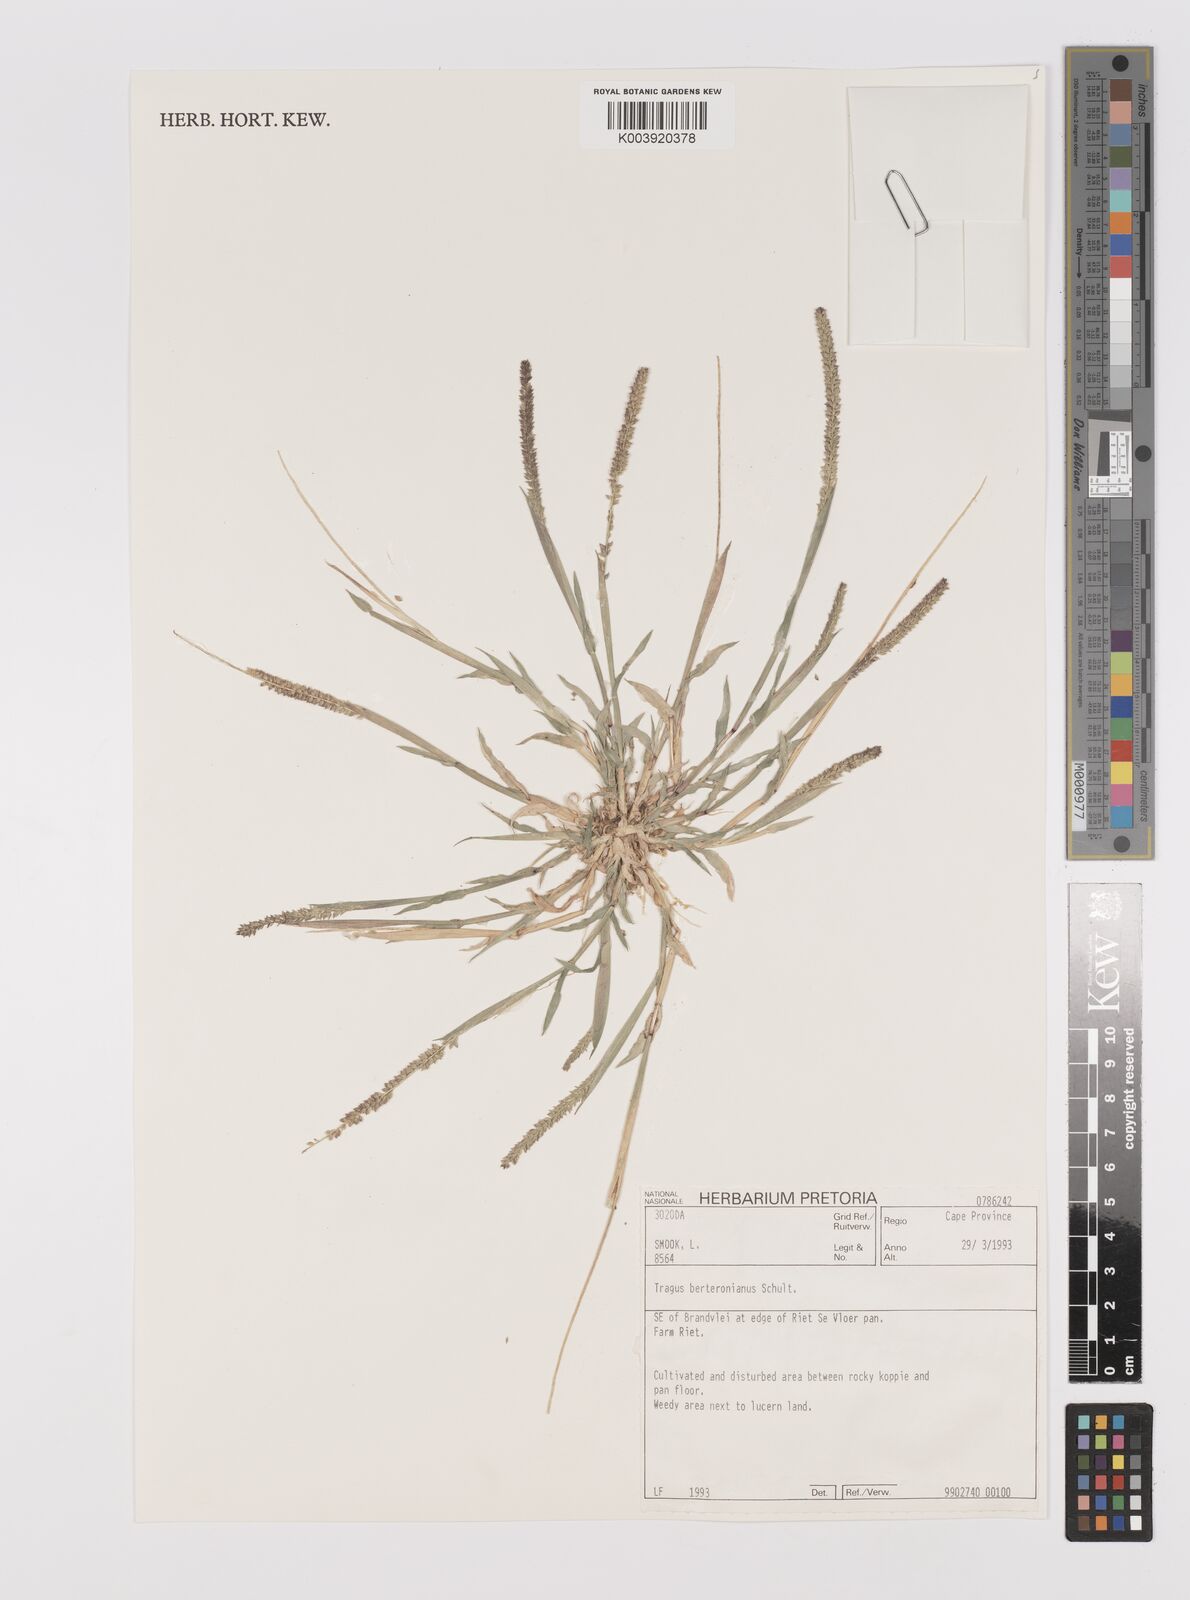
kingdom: Plantae
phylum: Tracheophyta
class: Liliopsida
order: Poales
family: Poaceae
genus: Tragus
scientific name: Tragus berteronianus
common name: African bur-grass
